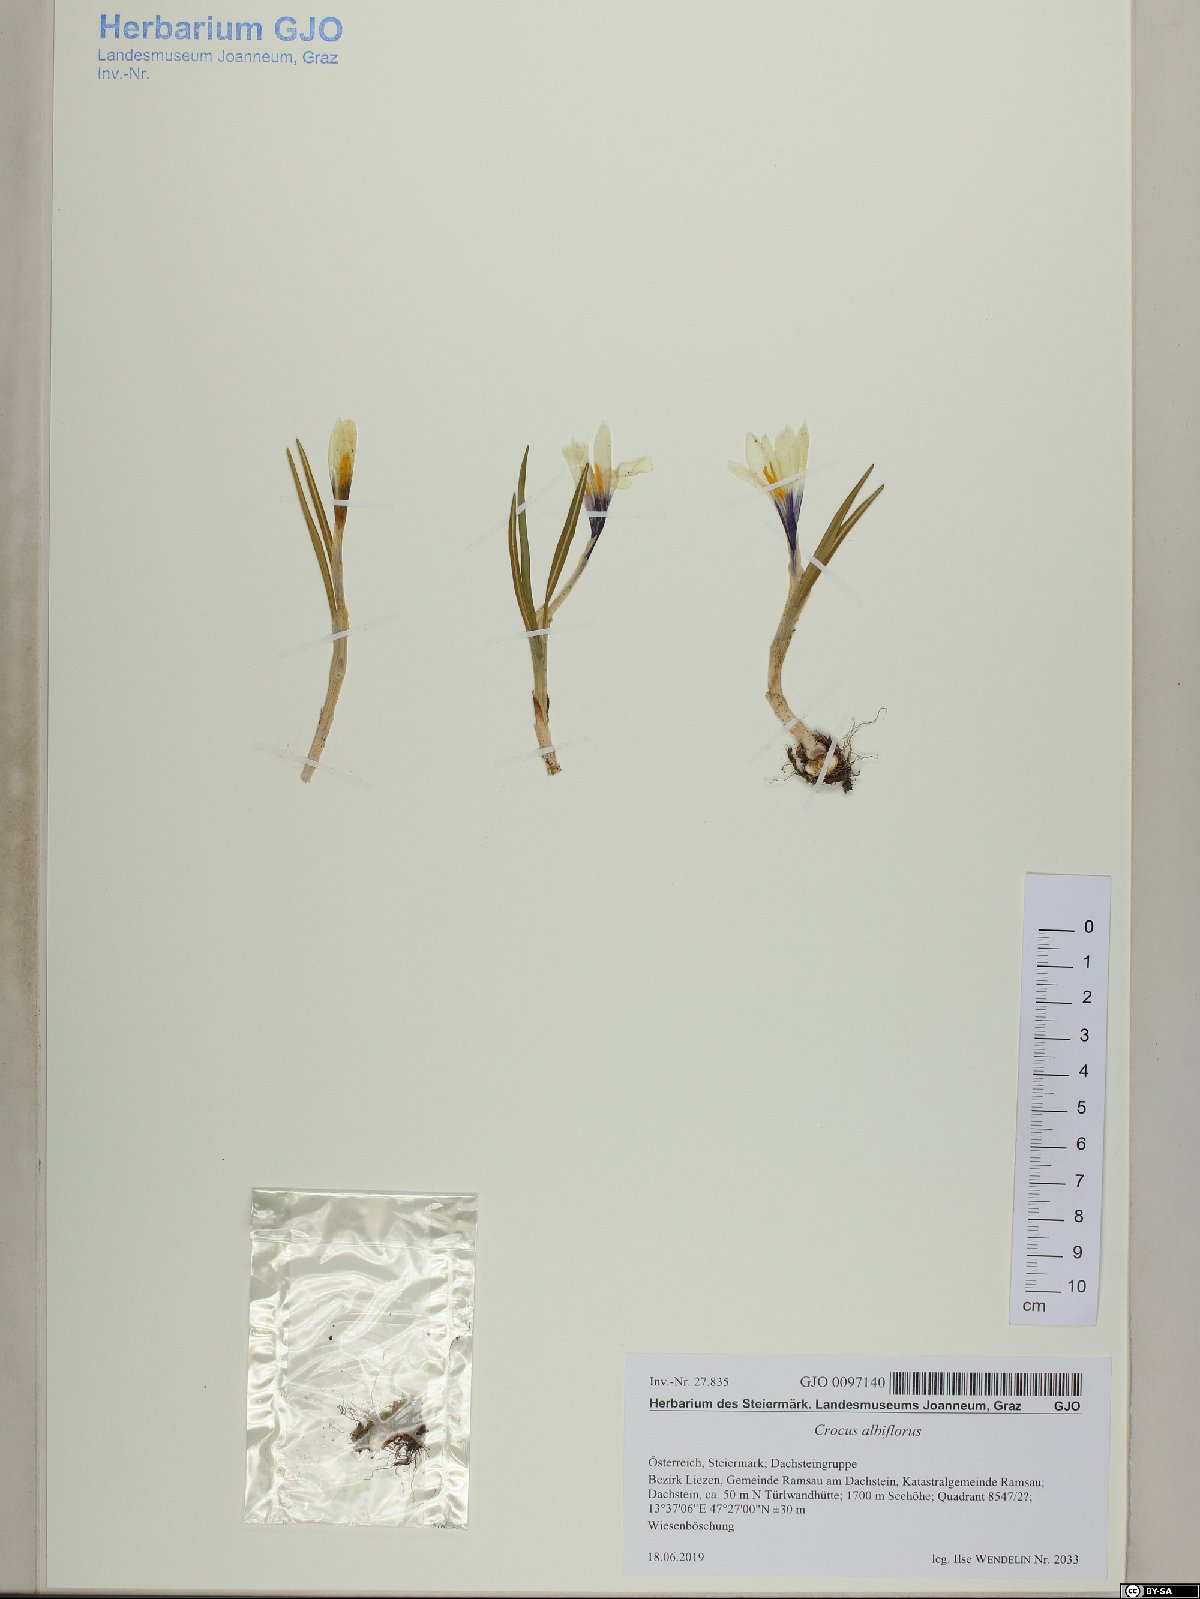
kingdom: Plantae
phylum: Tracheophyta
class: Liliopsida
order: Asparagales
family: Iridaceae
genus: Crocus
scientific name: Crocus vernus
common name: Spring crocus
